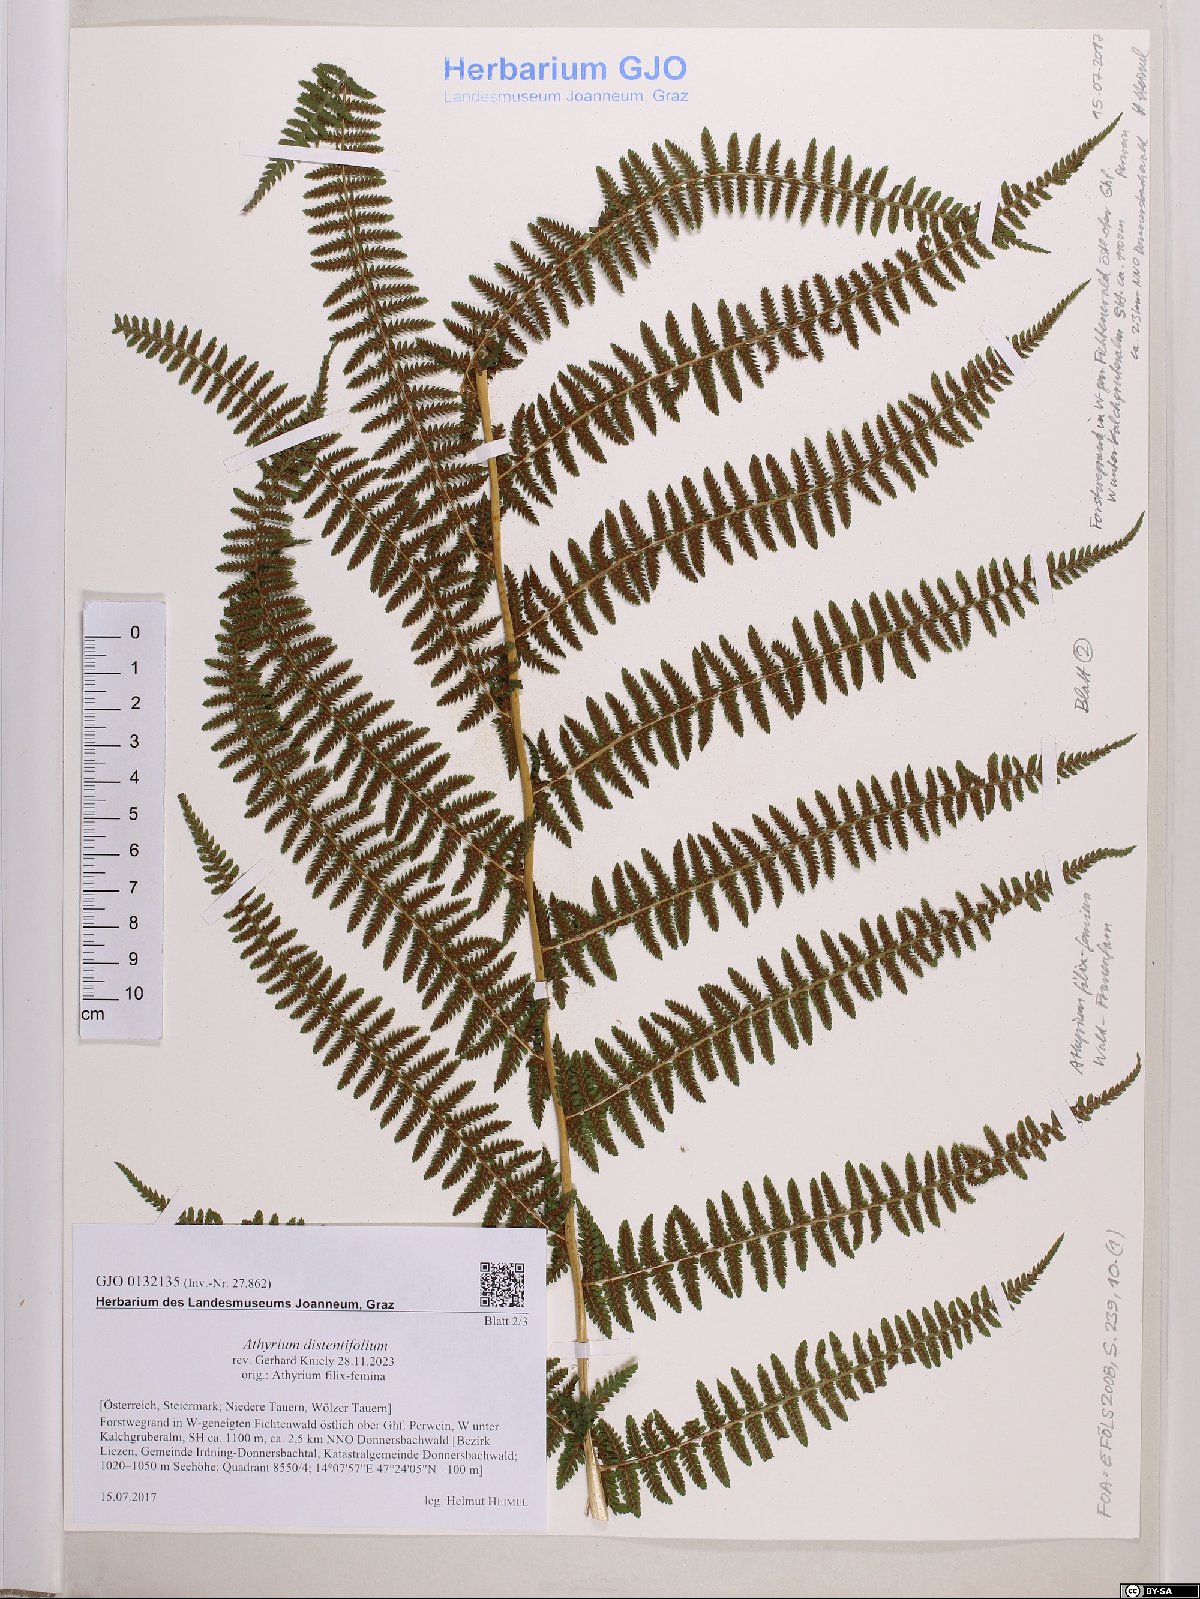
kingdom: Plantae
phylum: Tracheophyta
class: Polypodiopsida
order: Polypodiales
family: Athyriaceae
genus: Pseudathyrium
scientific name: Pseudathyrium alpestre
